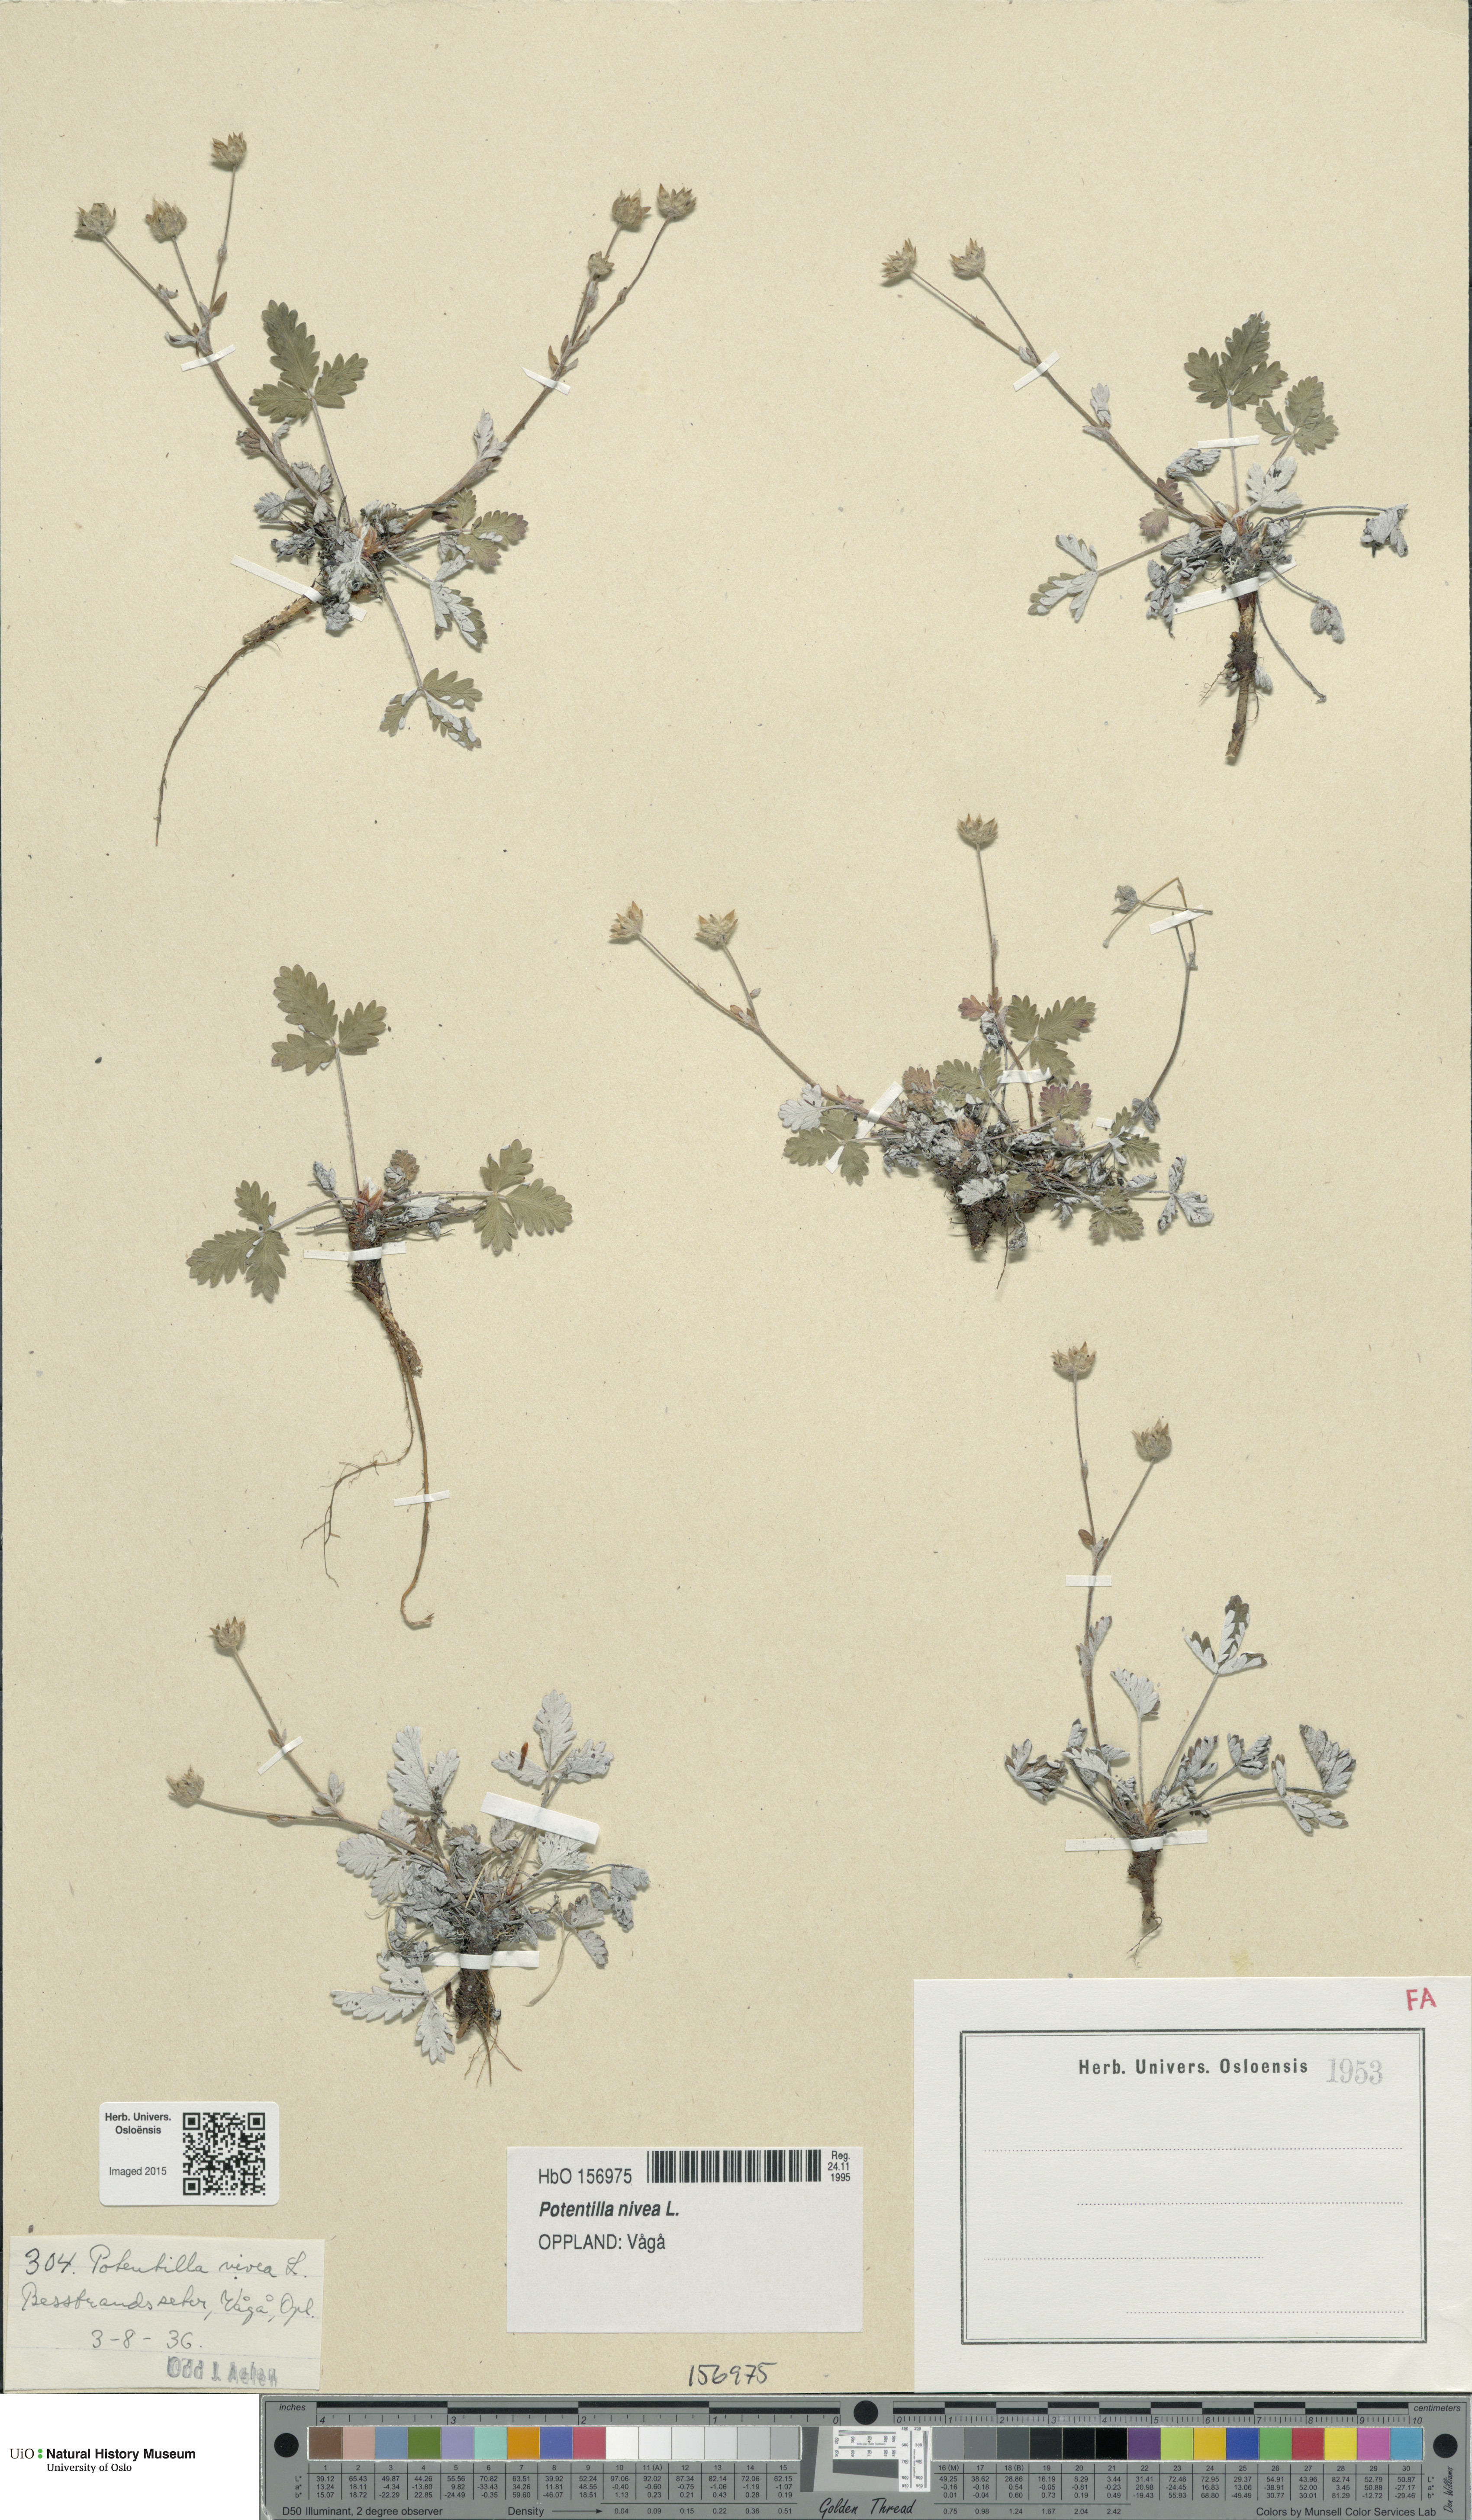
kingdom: Plantae
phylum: Tracheophyta
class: Magnoliopsida
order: Rosales
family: Rosaceae
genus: Potentilla
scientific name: Potentilla arenosa
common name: Bluff cinquefoil
